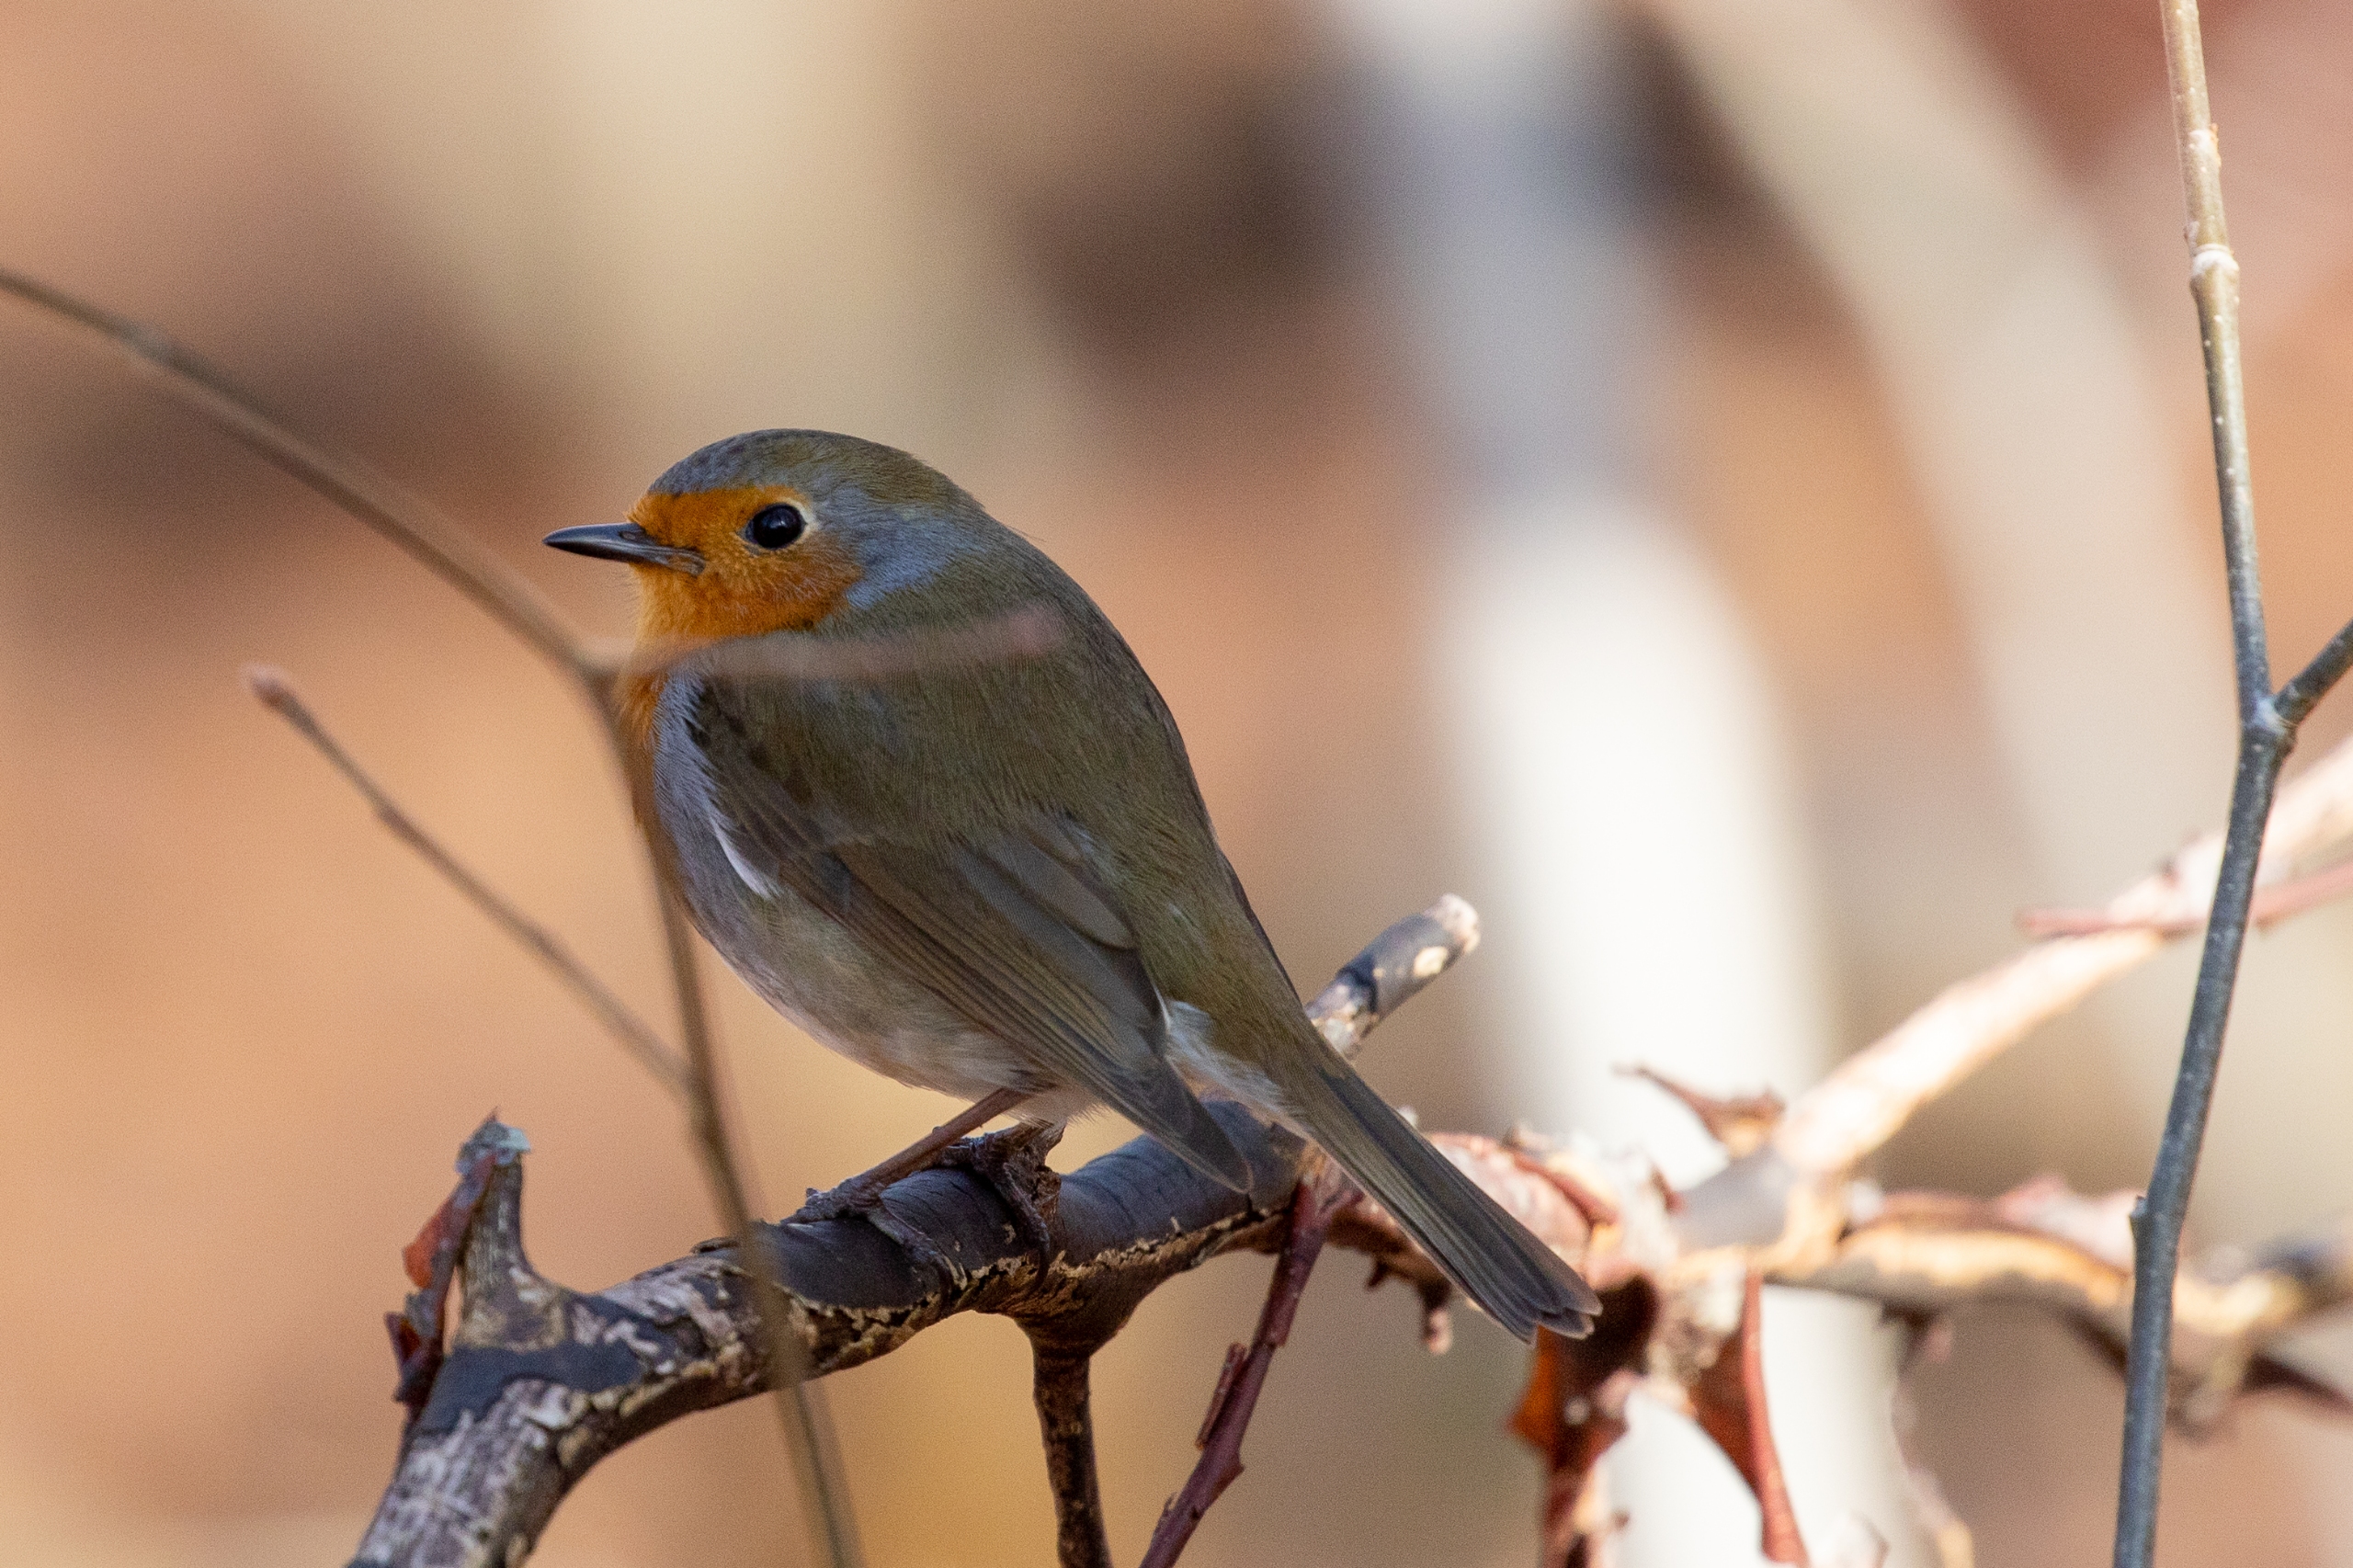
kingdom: Animalia
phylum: Chordata
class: Aves
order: Passeriformes
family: Muscicapidae
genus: Erithacus
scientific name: Erithacus rubecula
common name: Rødhals/rødkælk
